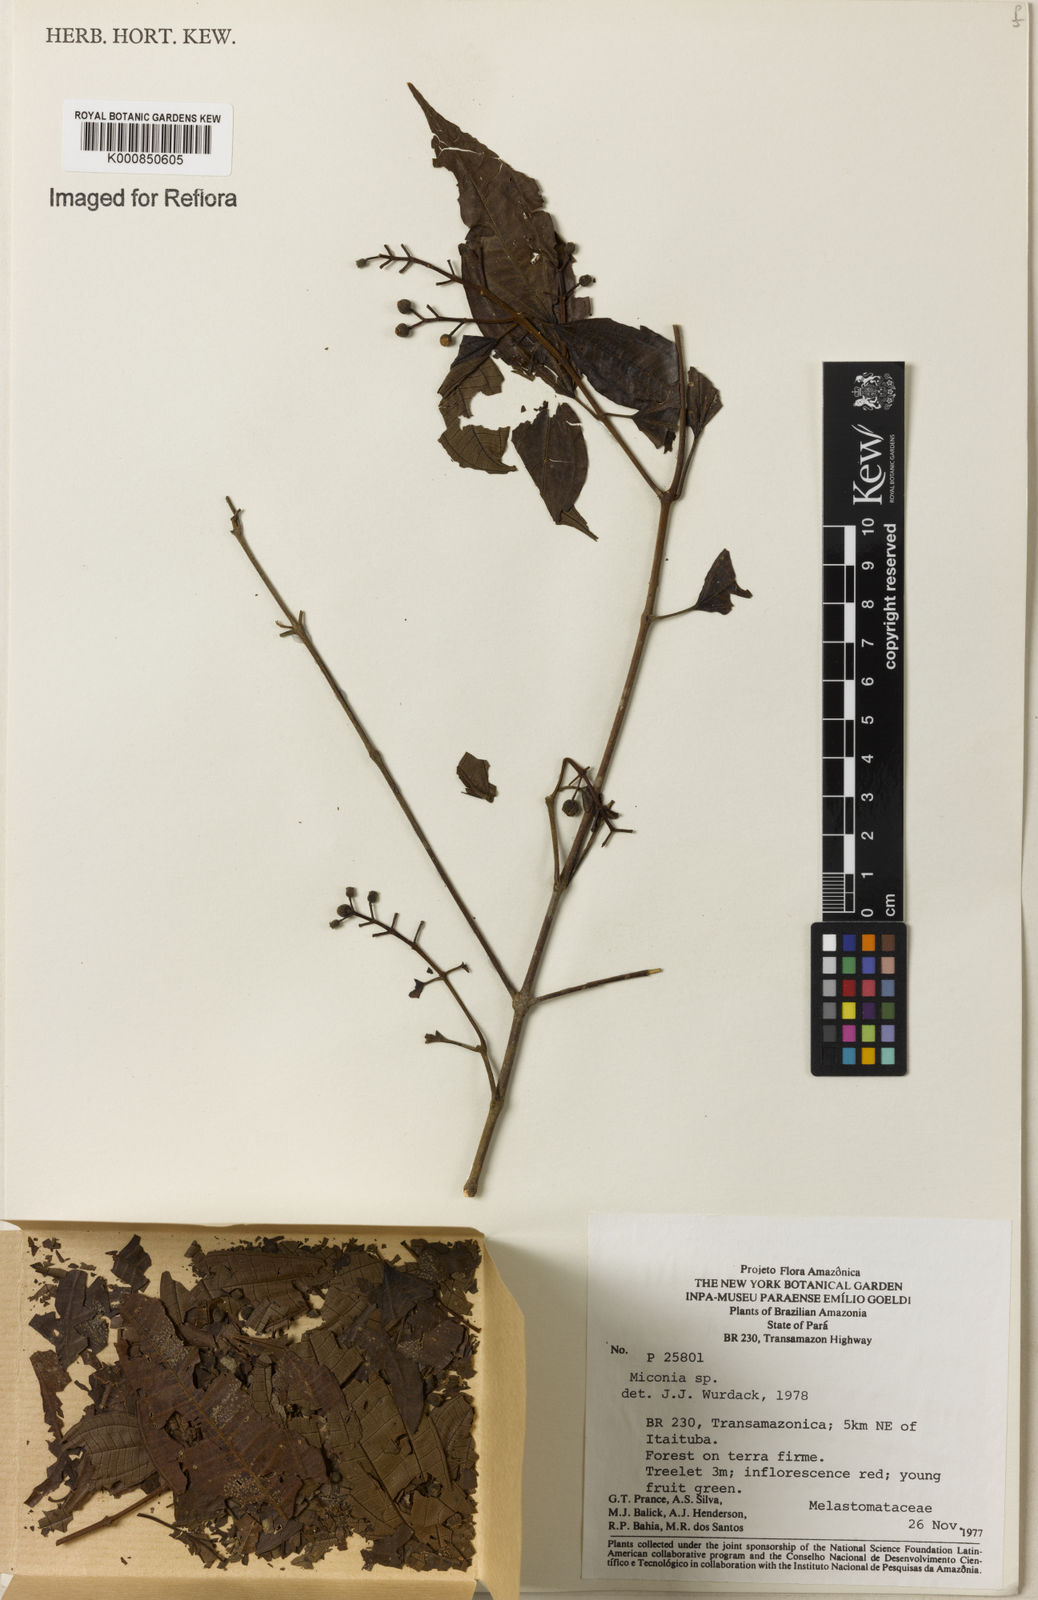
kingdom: Plantae
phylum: Tracheophyta
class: Magnoliopsida
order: Myrtales
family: Melastomataceae
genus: Miconia
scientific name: Miconia
